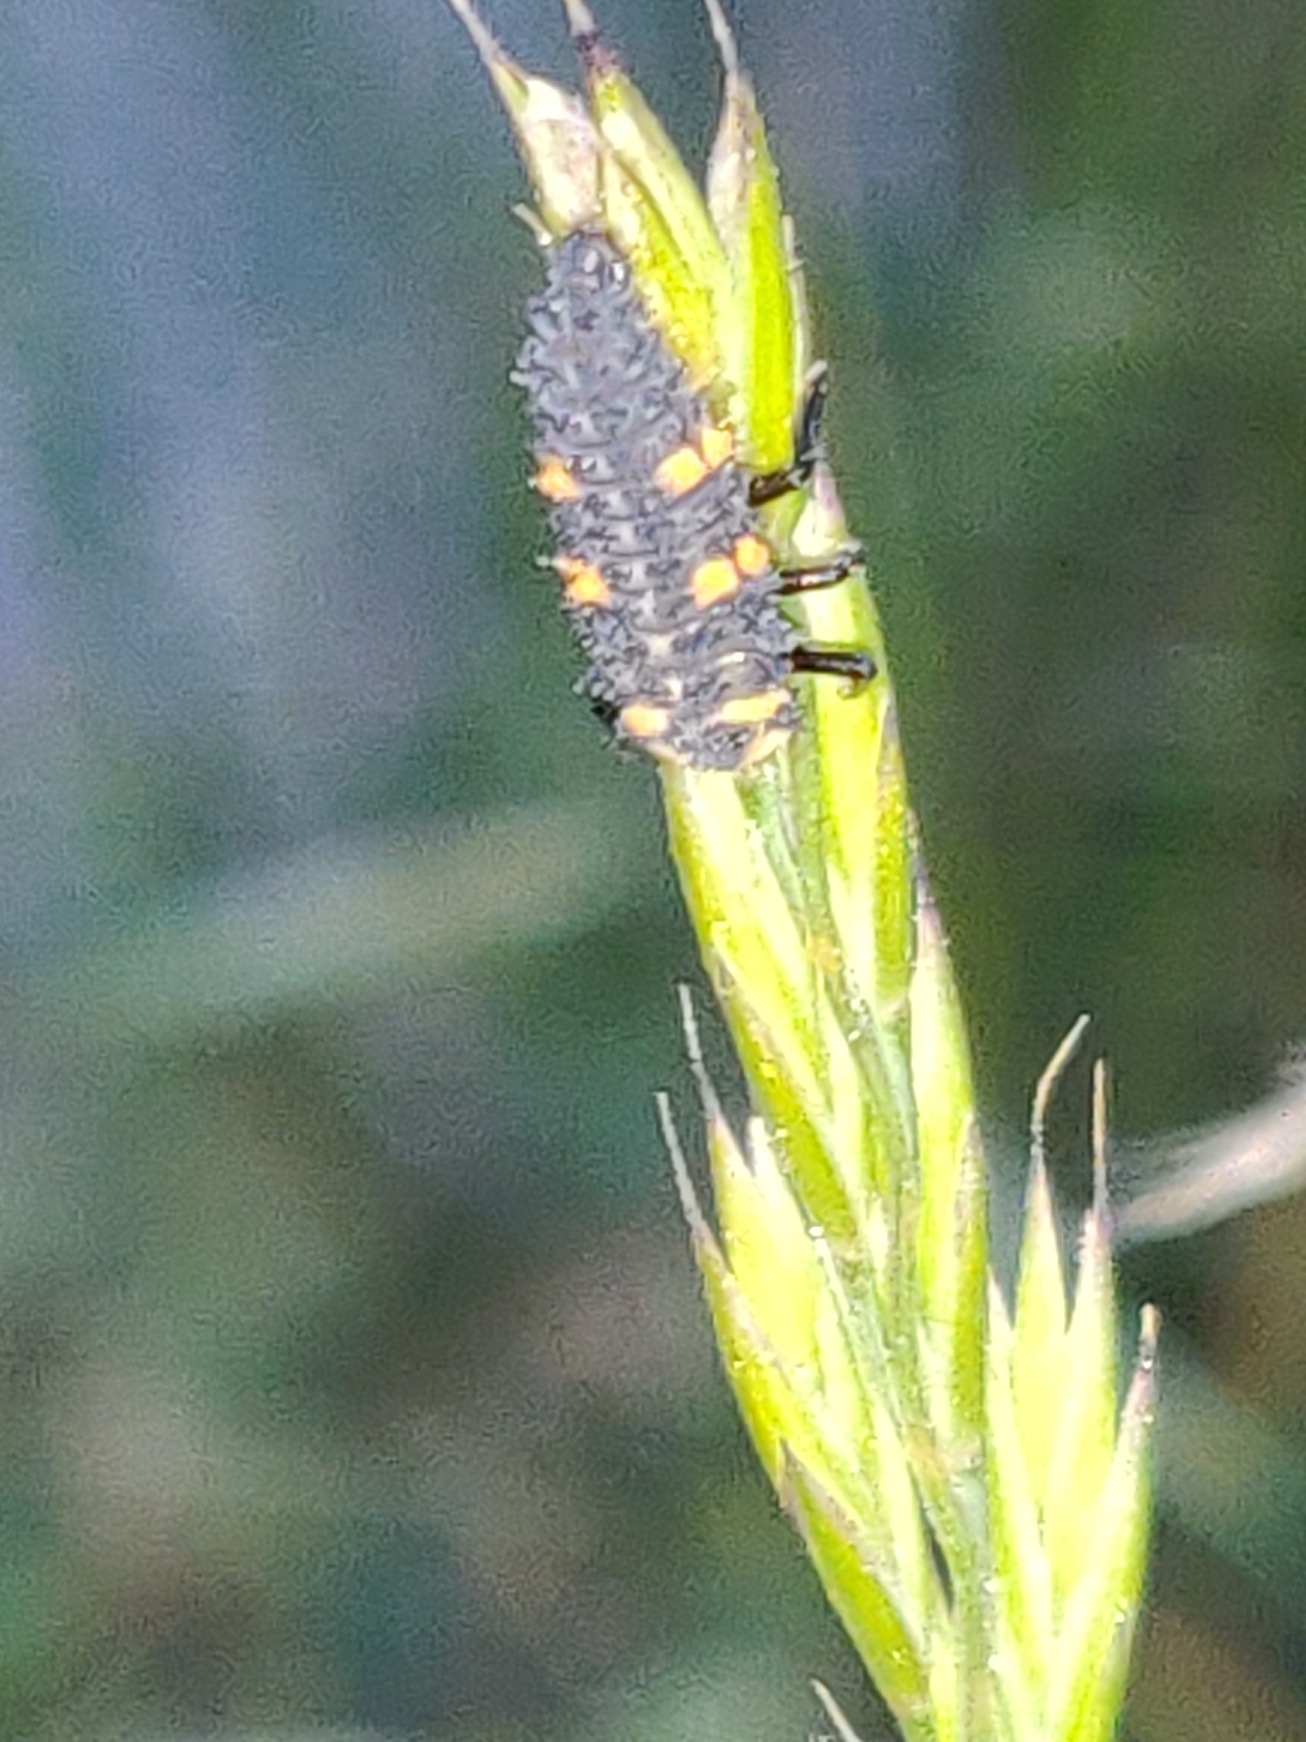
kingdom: Animalia
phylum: Arthropoda
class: Insecta
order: Coleoptera
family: Coccinellidae
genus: Coccinella
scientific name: Coccinella septempunctata
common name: Syvplettet mariehøne
